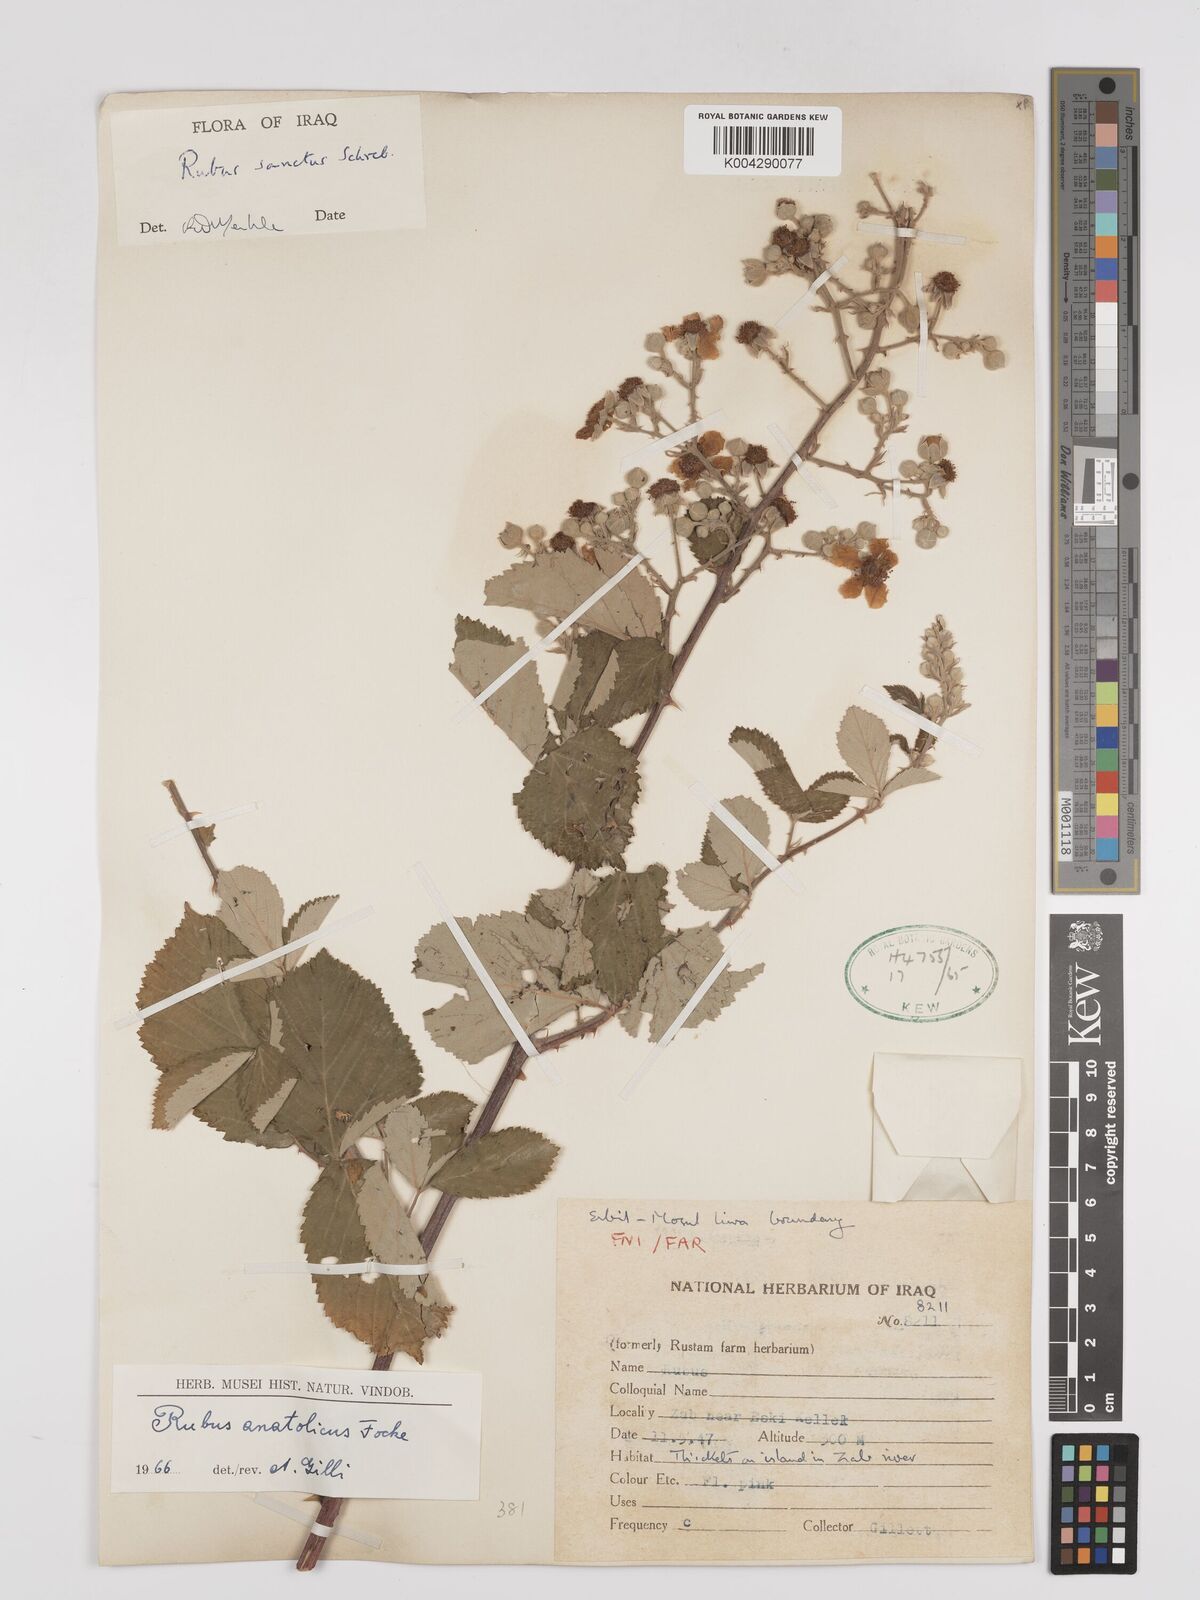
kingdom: Plantae
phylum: Tracheophyta
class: Magnoliopsida
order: Rosales
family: Rosaceae
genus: Rubus
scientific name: Rubus sanctus
